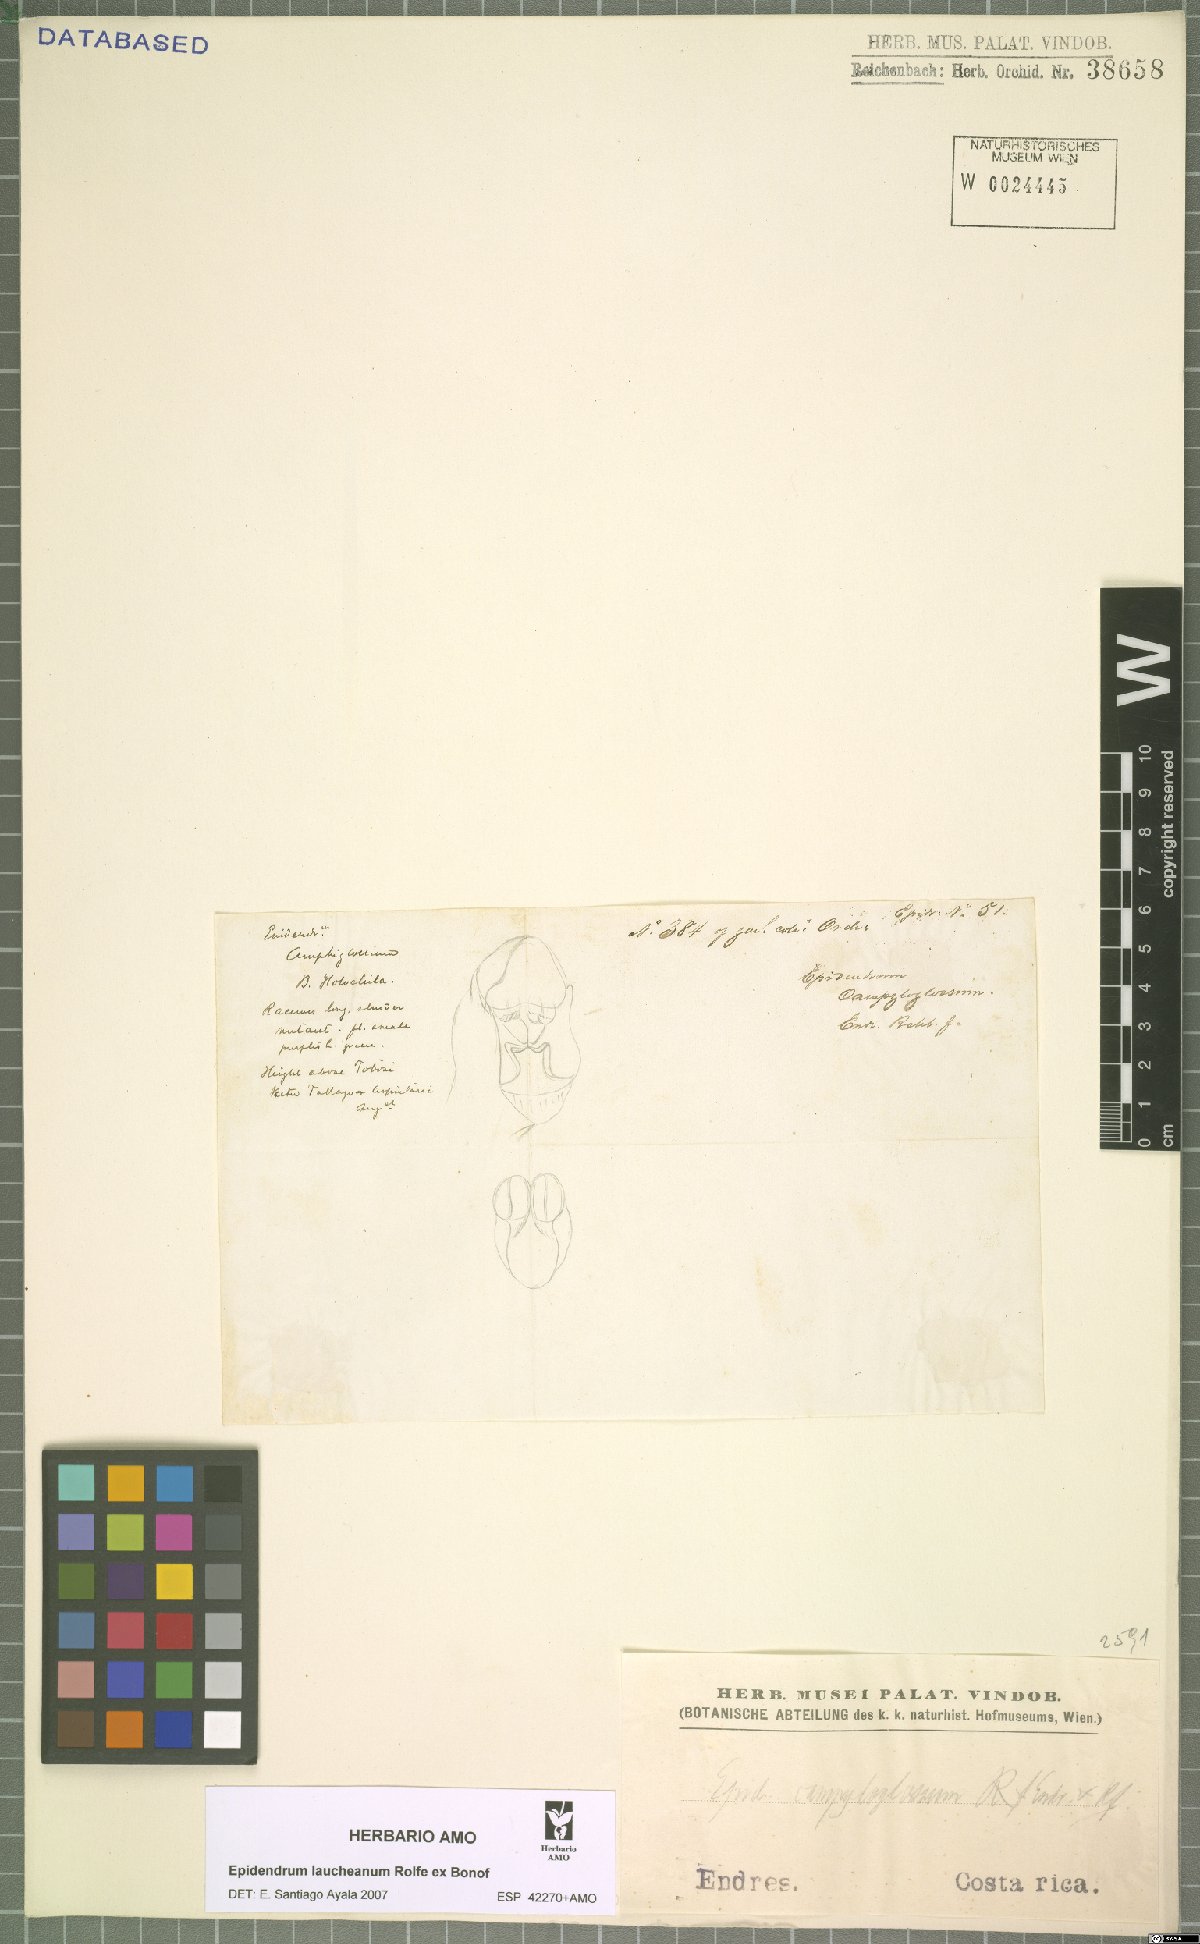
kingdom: Plantae
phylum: Tracheophyta
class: Liliopsida
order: Asparagales
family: Orchidaceae
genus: Epidendrum
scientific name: Epidendrum laucheanum
